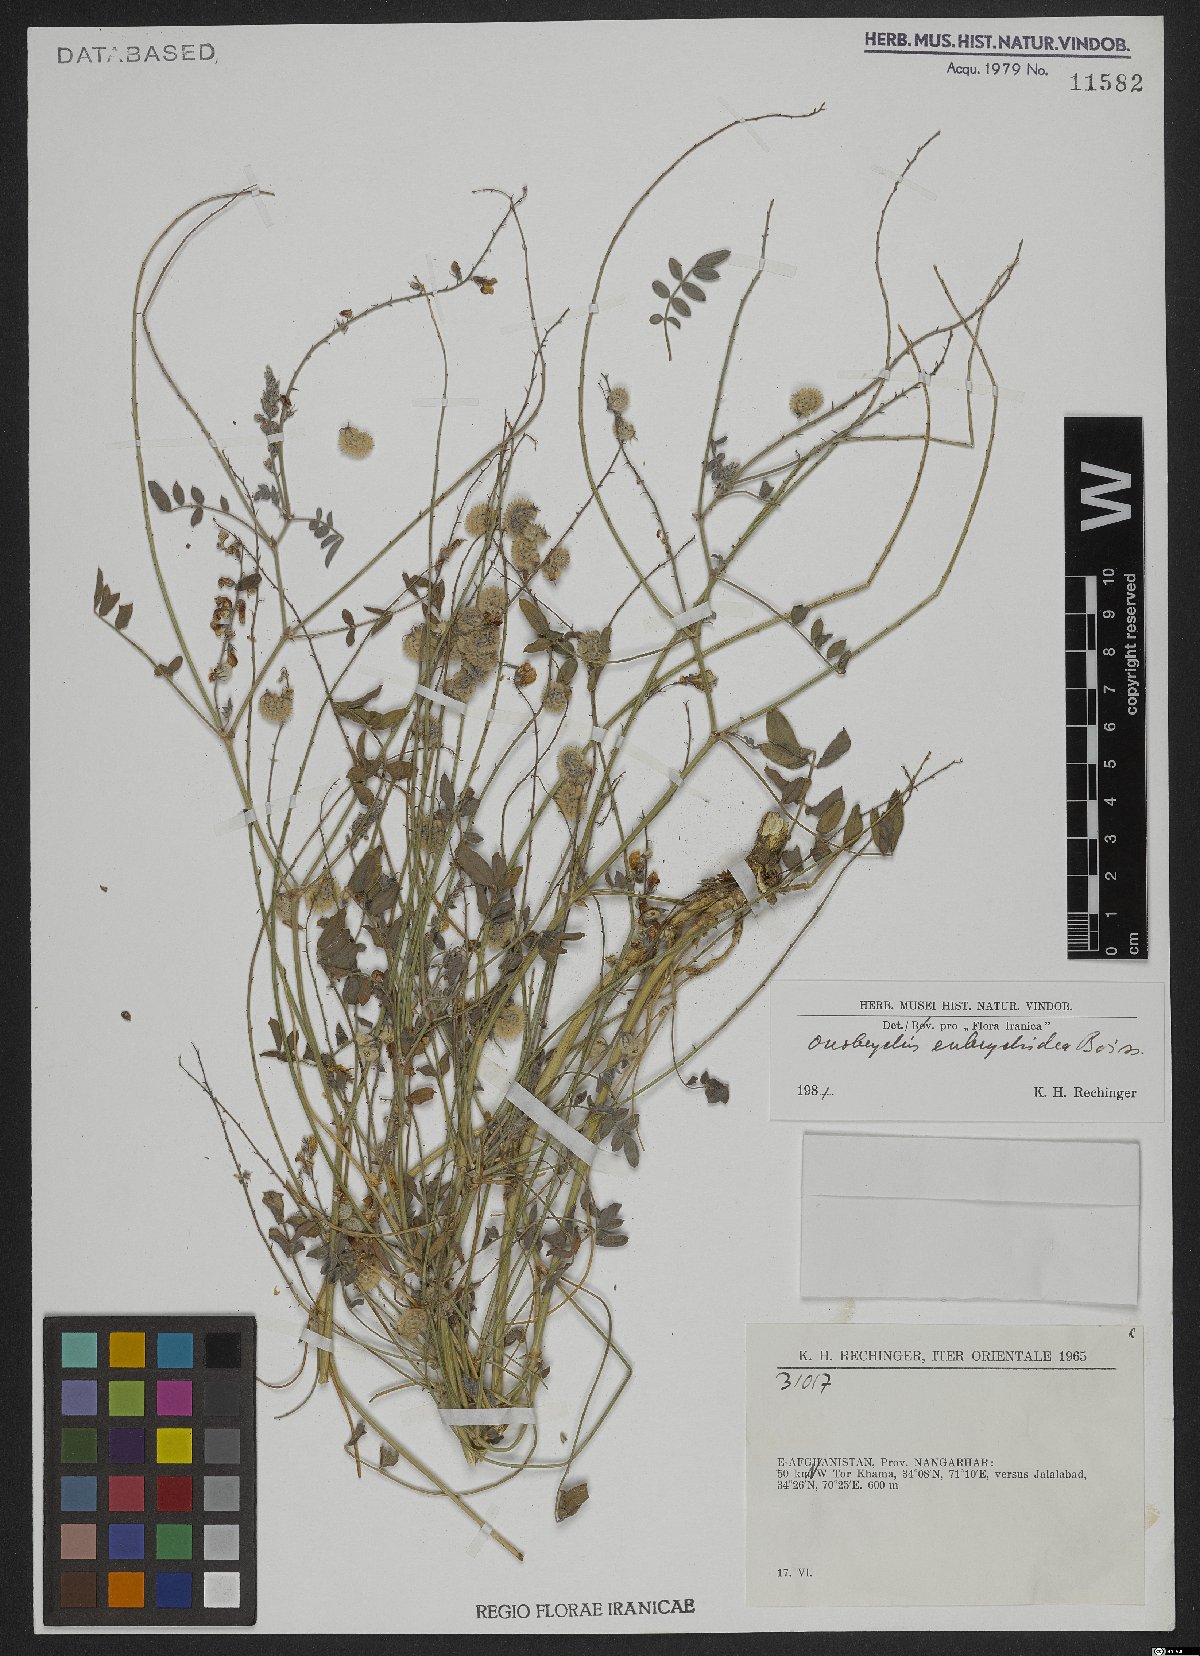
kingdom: Plantae
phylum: Tracheophyta
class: Magnoliopsida
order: Fabales
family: Fabaceae
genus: Onobrychis
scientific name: Onobrychis eubrychidea
